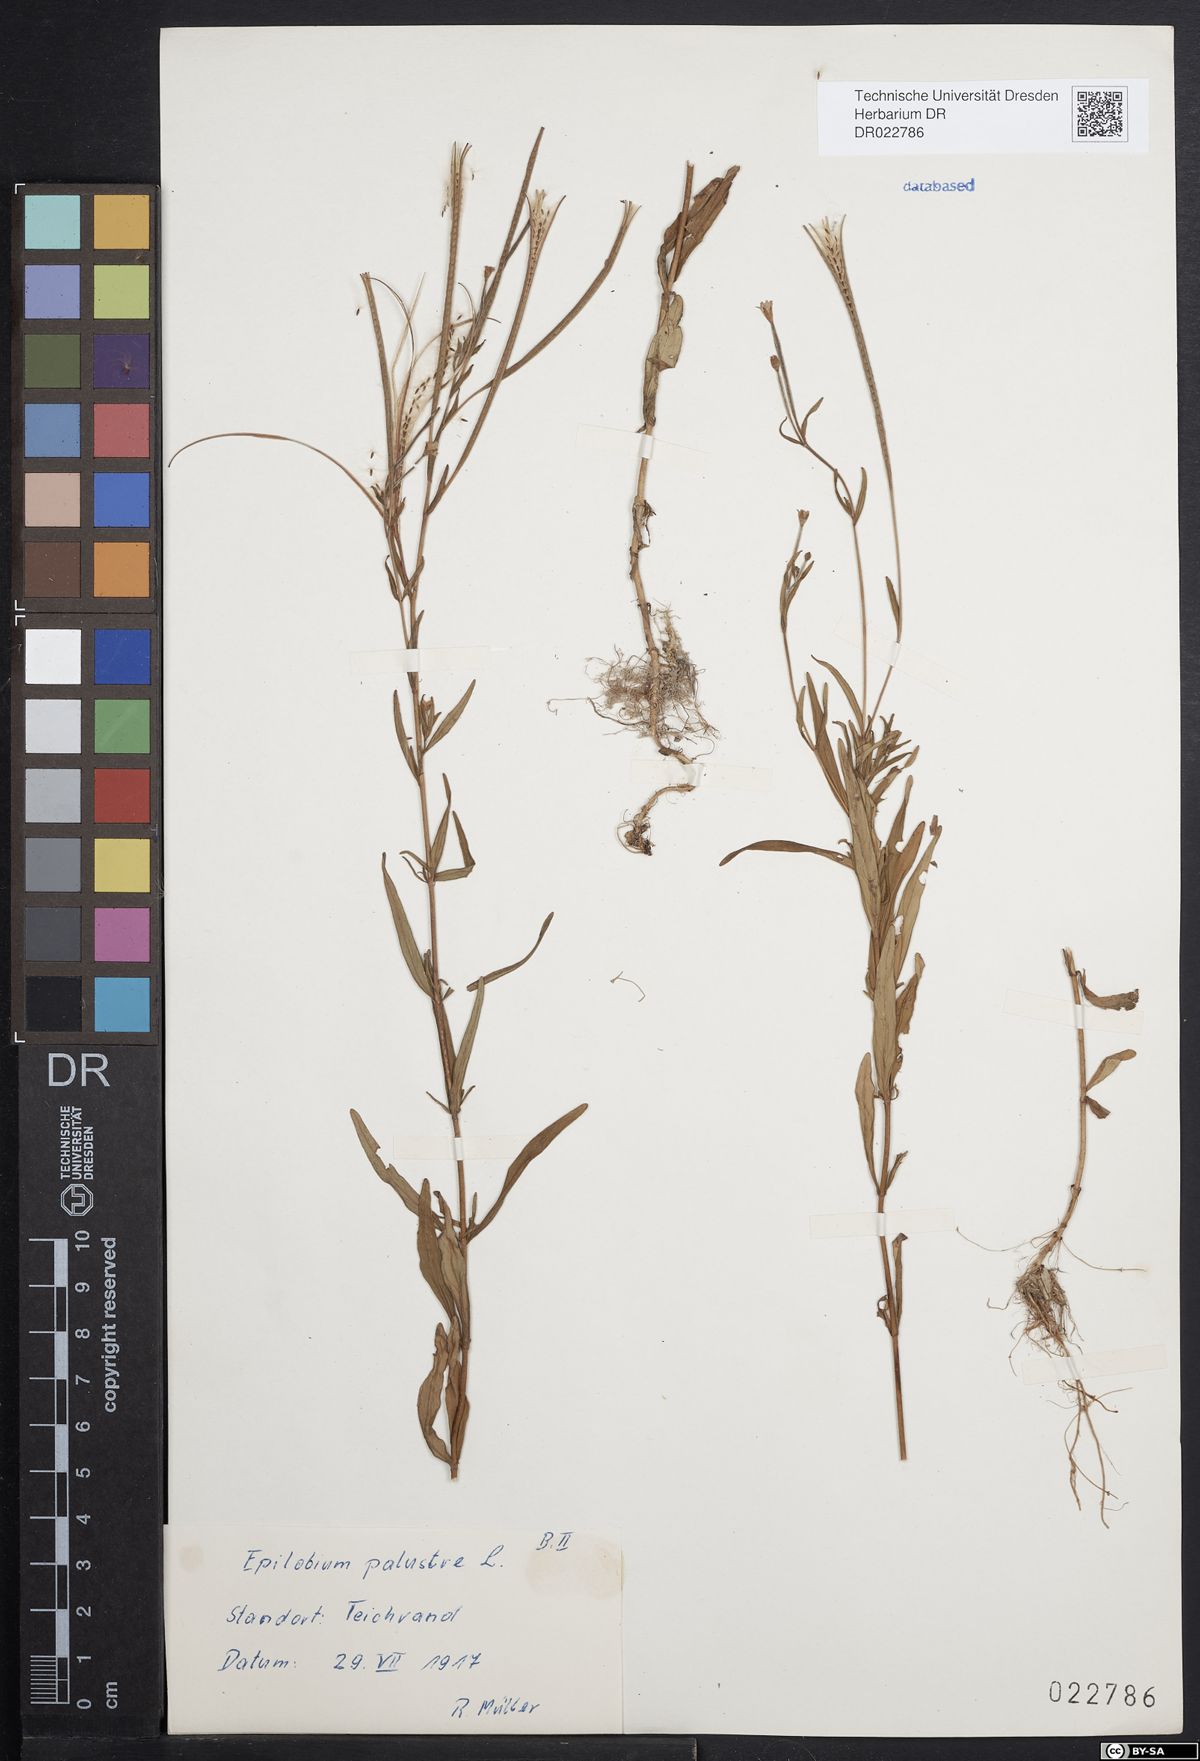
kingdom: Plantae
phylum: Tracheophyta
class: Magnoliopsida
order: Myrtales
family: Onagraceae
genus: Epilobium
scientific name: Epilobium palustre
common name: Marsh willowherb
